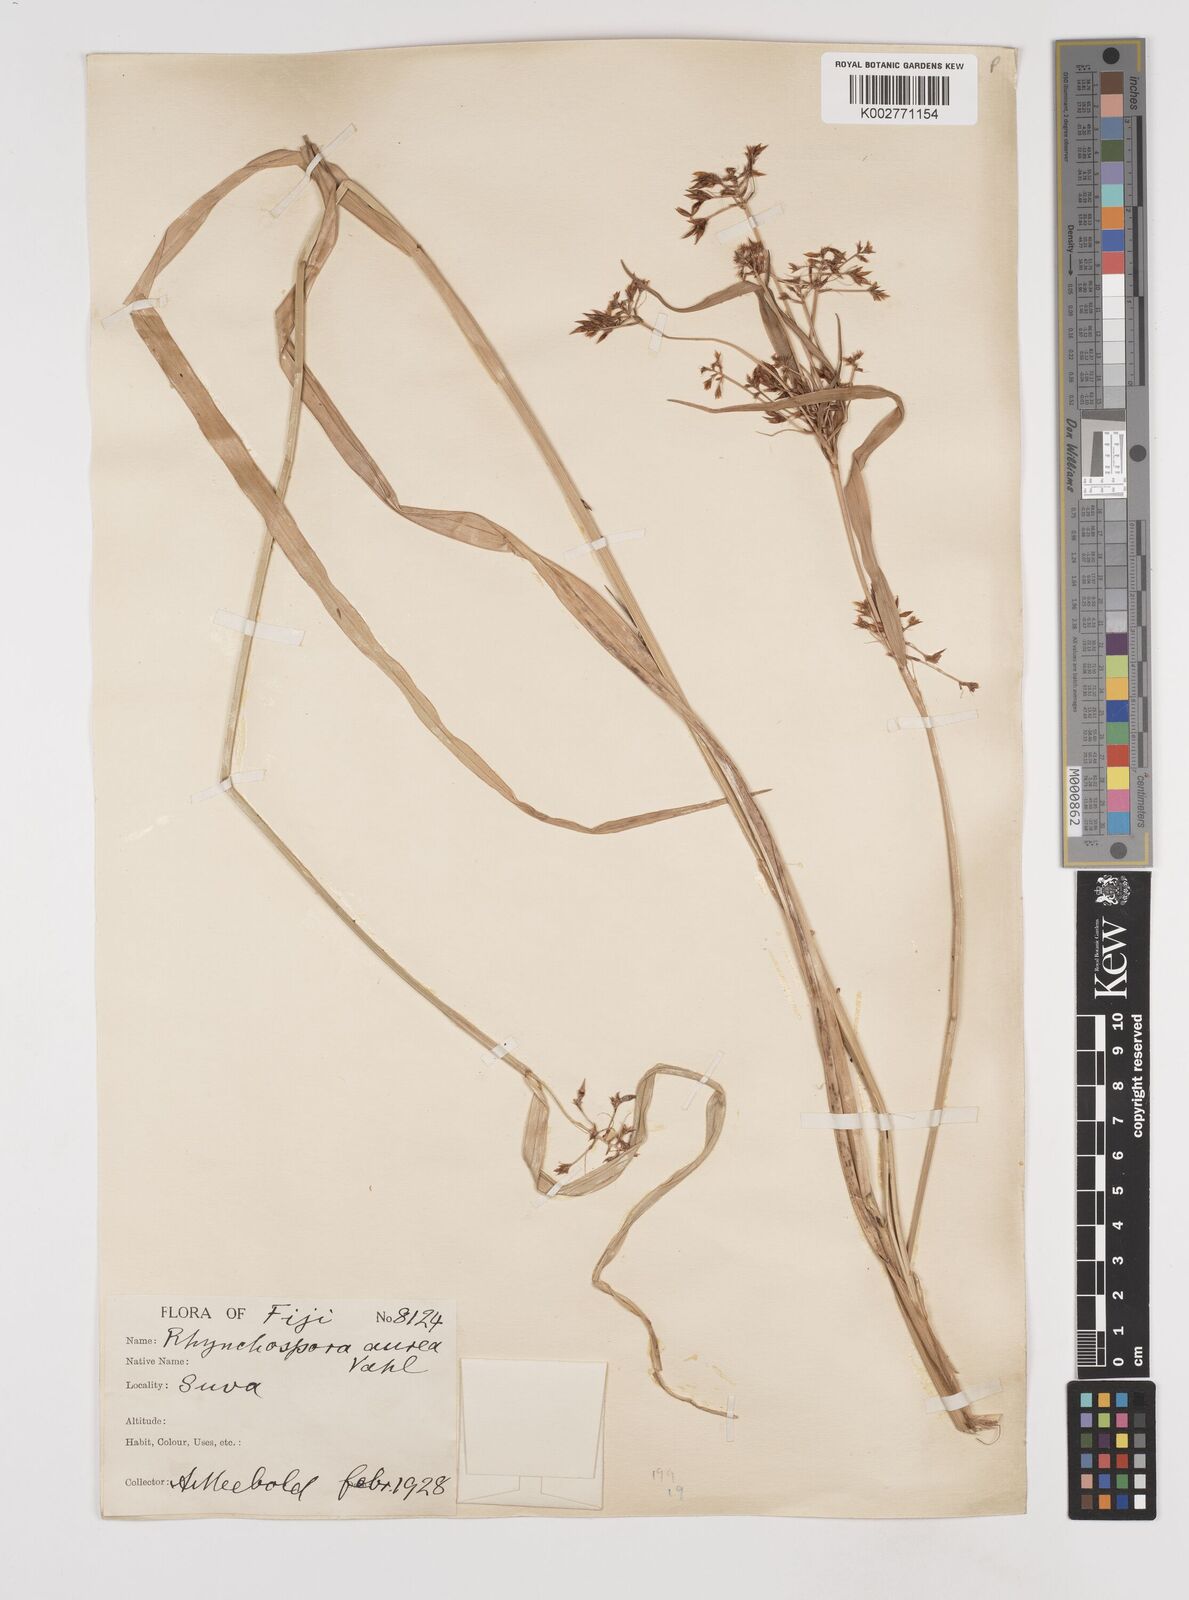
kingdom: Plantae
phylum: Tracheophyta
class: Liliopsida
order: Poales
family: Cyperaceae
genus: Rhynchospora
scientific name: Rhynchospora corymbosa
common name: Golden beak sedge
